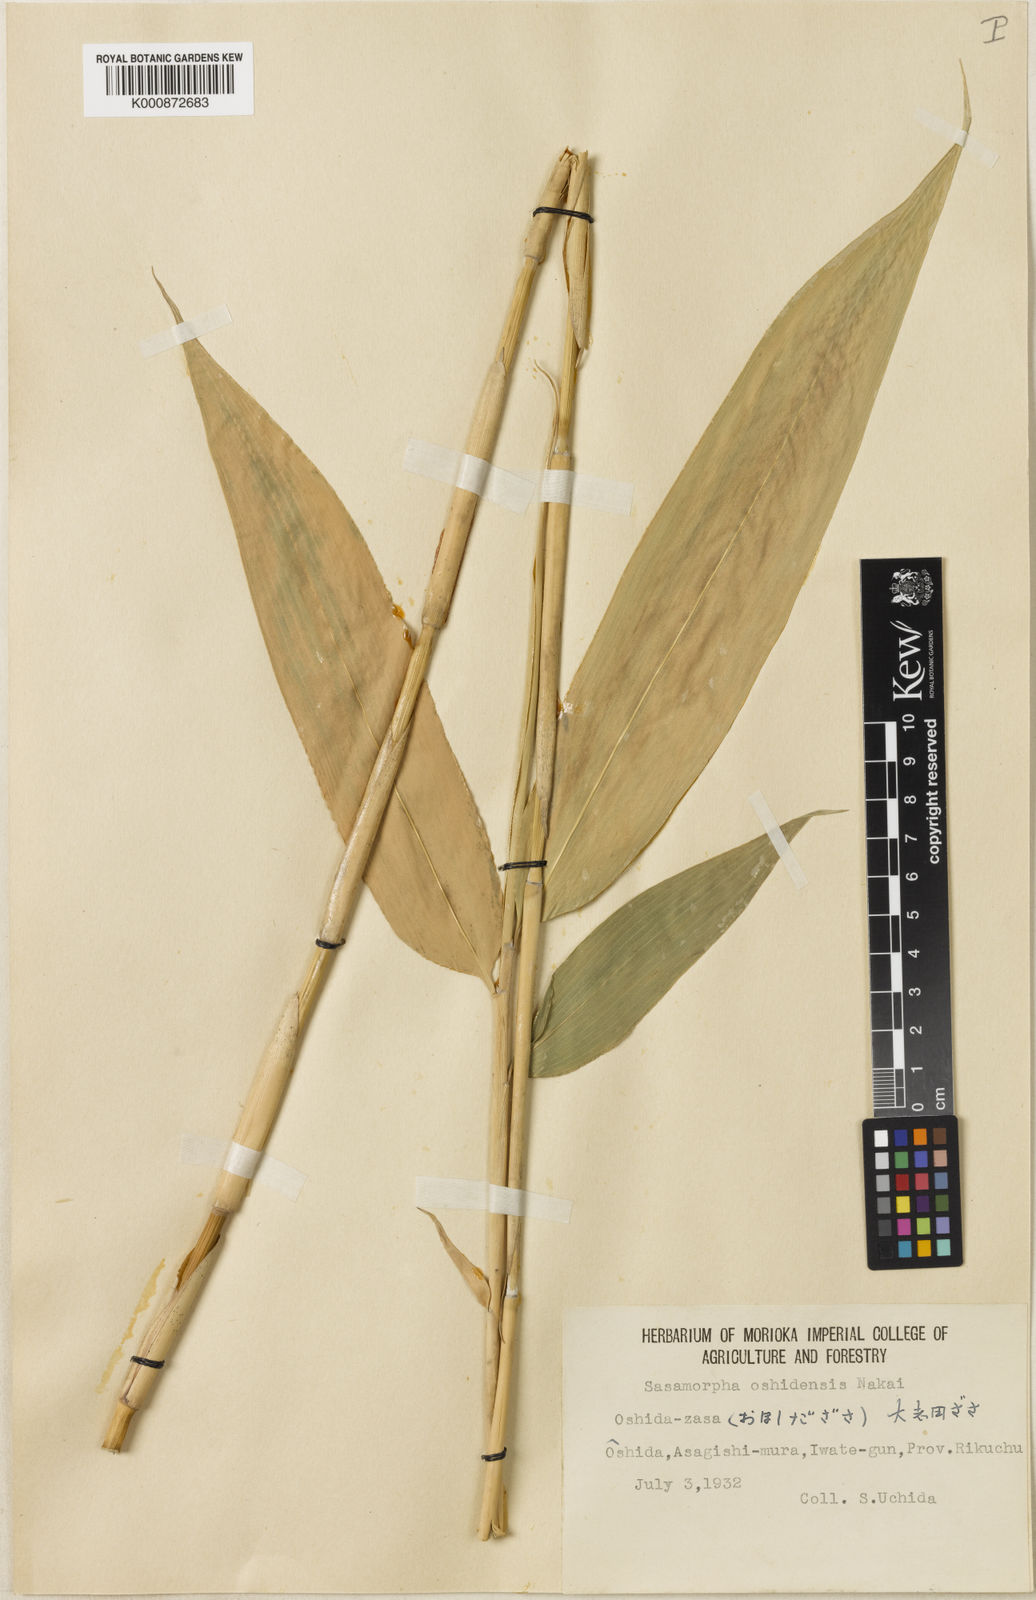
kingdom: Plantae
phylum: Tracheophyta
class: Liliopsida
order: Poales
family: Poaceae
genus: Sasamorpha
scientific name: Sasamorpha oshidensis
